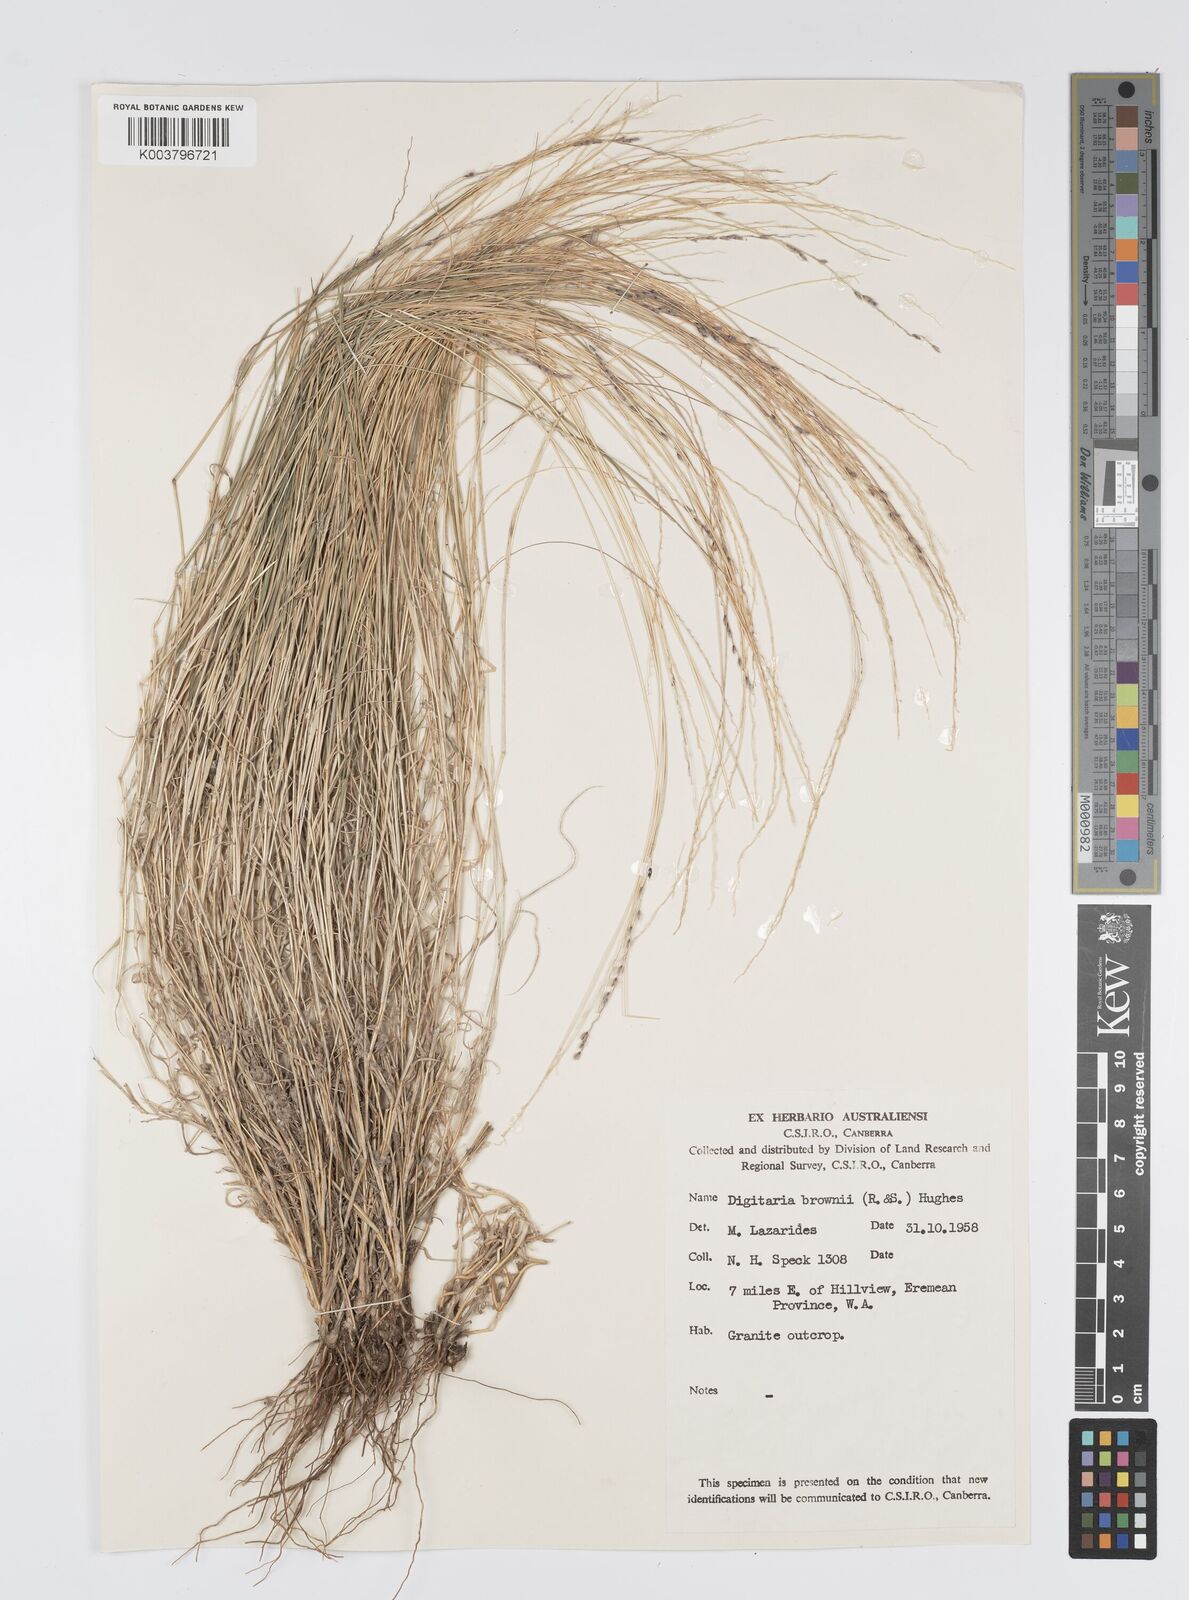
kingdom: Plantae
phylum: Tracheophyta
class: Liliopsida
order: Poales
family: Poaceae
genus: Digitaria
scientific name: Digitaria brownii
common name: Cotton grass
